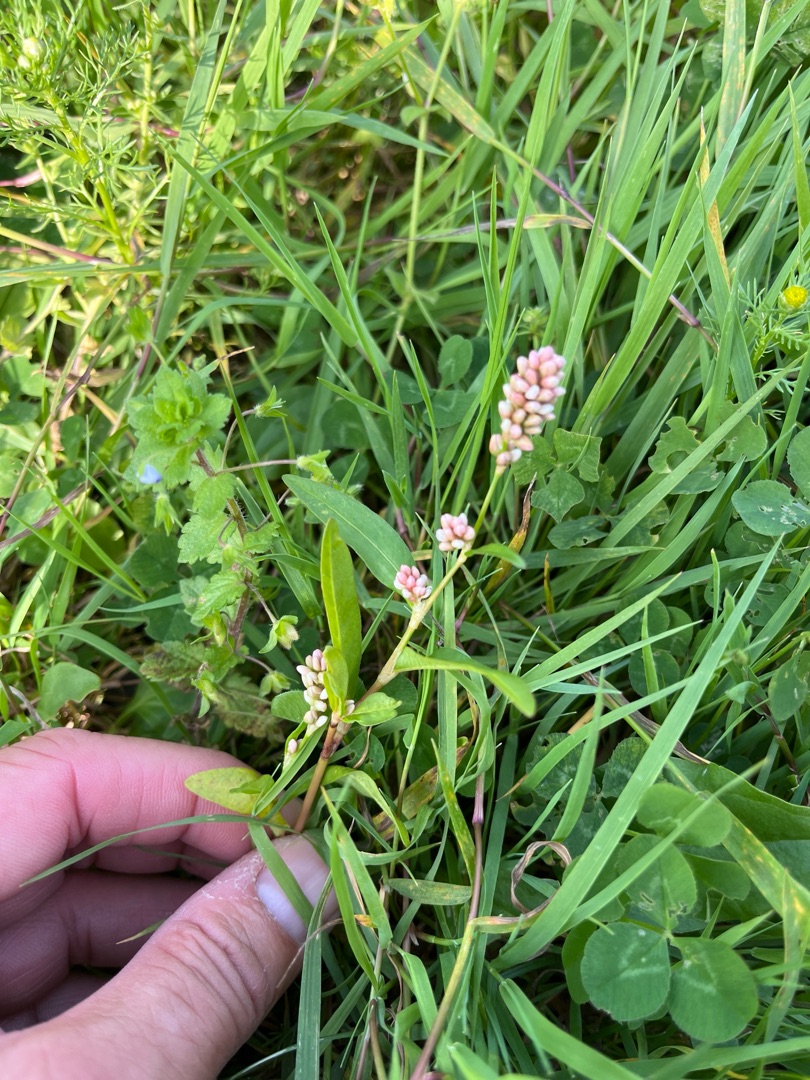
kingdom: Plantae
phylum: Tracheophyta
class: Magnoliopsida
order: Caryophyllales
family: Polygonaceae
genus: Persicaria
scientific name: Persicaria maculosa
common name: Fersken-pileurt
